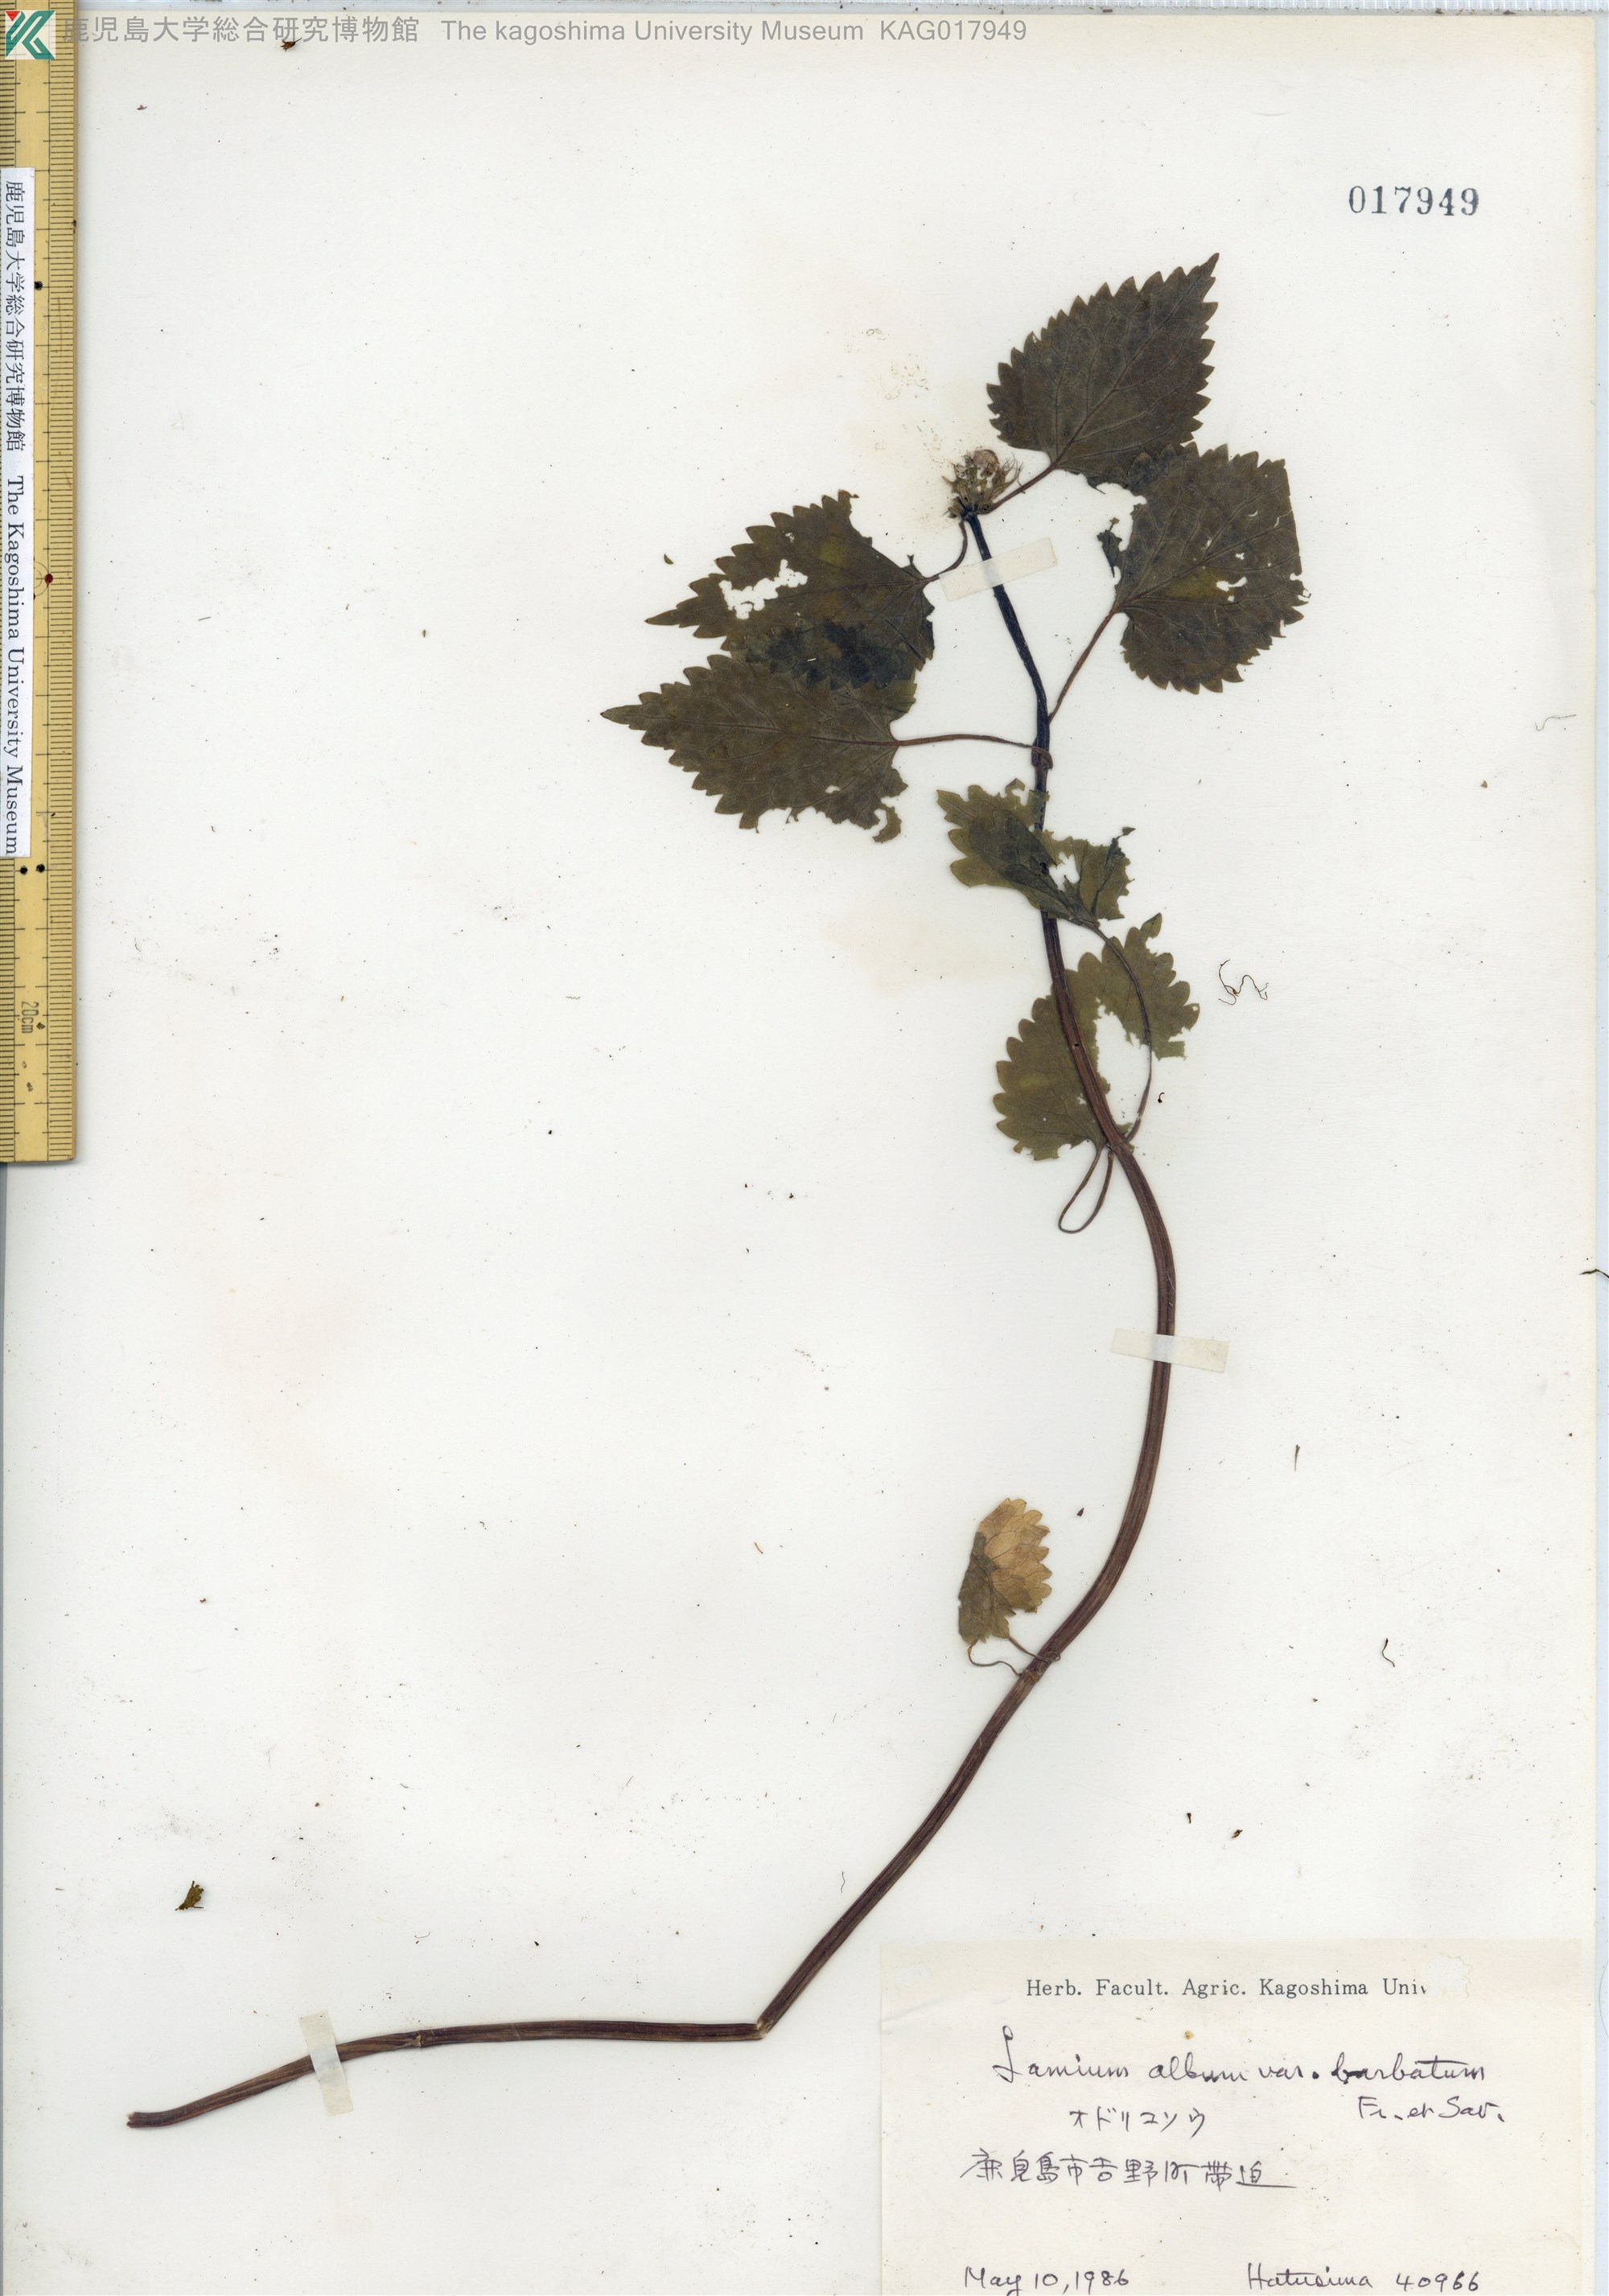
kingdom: Plantae
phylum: Tracheophyta
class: Magnoliopsida
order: Lamiales
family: Lamiaceae
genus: Lamium
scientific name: Lamium album
